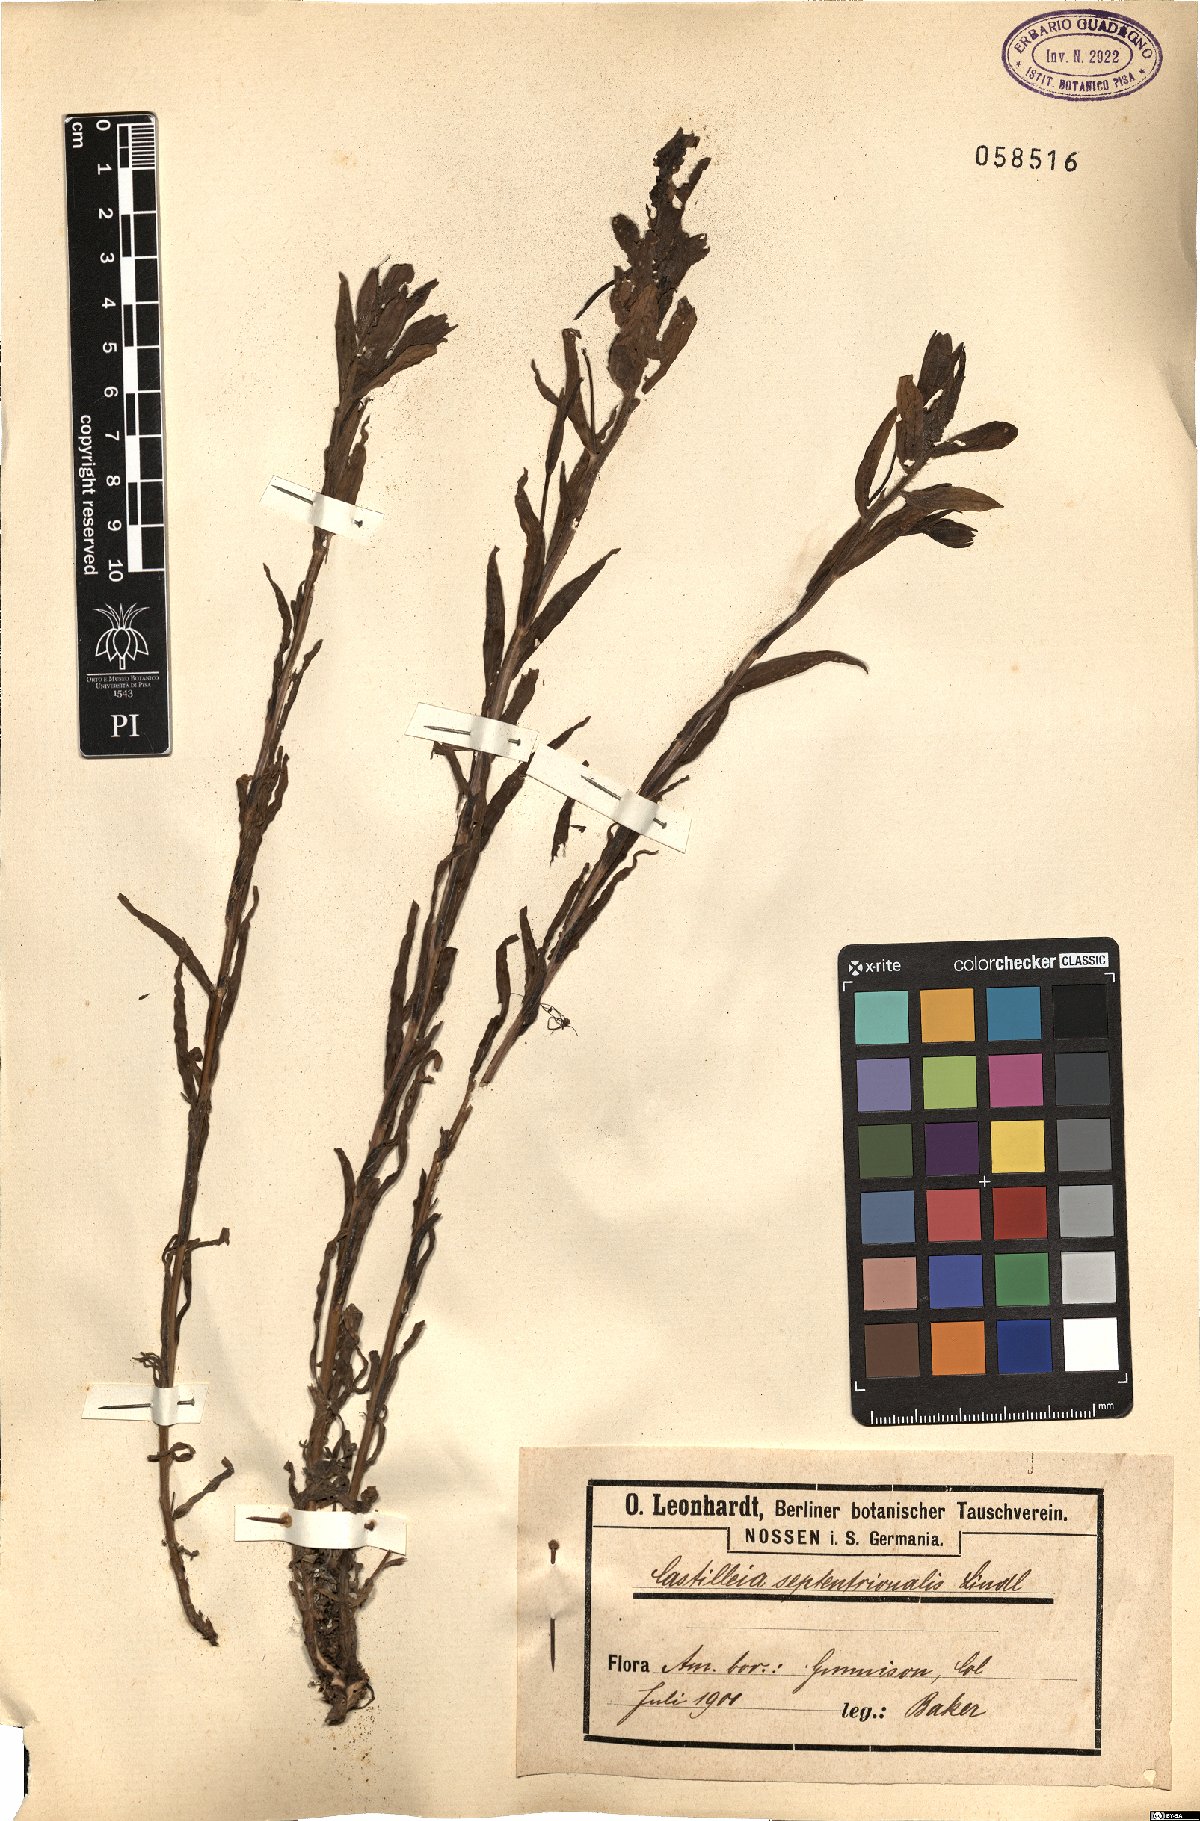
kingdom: Plantae
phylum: Tracheophyta
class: Magnoliopsida
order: Lamiales
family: Orobanchaceae
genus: Castilleja
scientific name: Castilleja septentrionalis
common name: Northeastern paintbrush
